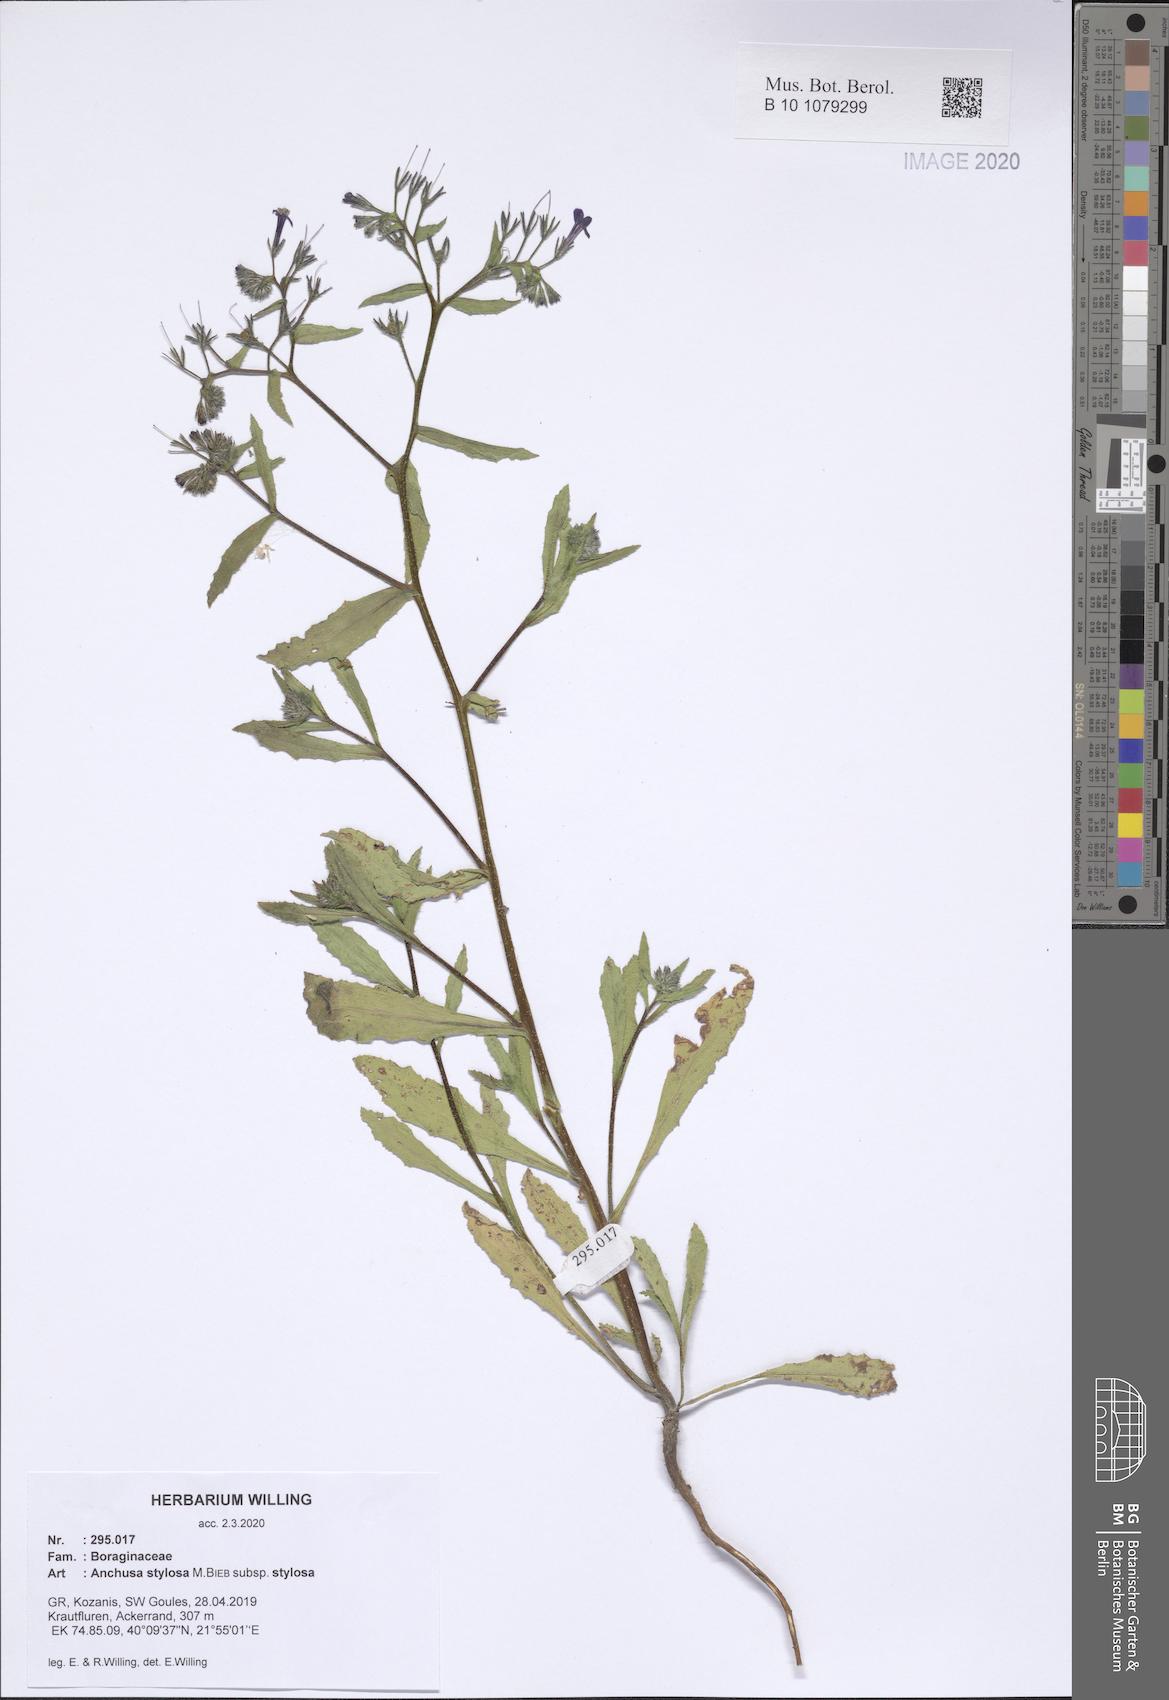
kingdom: Plantae
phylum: Tracheophyta
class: Magnoliopsida
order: Boraginales
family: Boraginaceae
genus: Anchusa
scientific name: Anchusa stylosa
